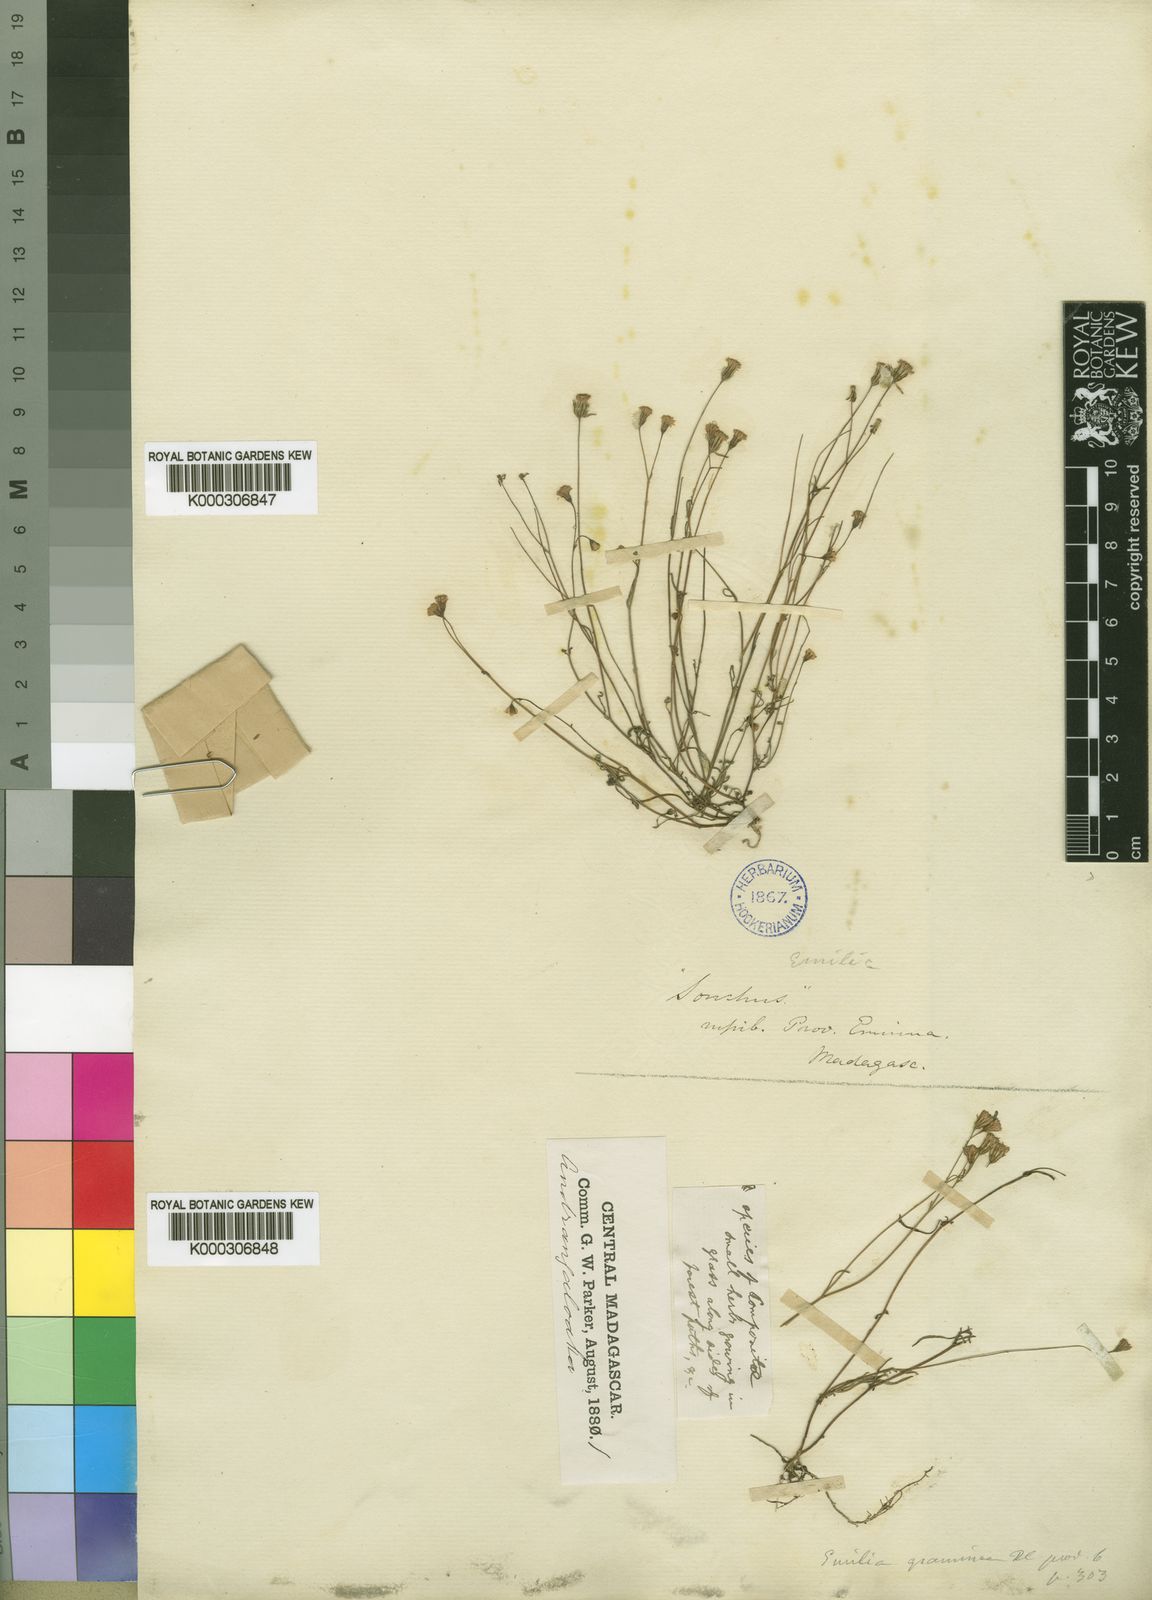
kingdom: Plantae
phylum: Tracheophyta
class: Magnoliopsida
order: Asterales
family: Asteraceae
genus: Emilia
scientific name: Emilia graminea
